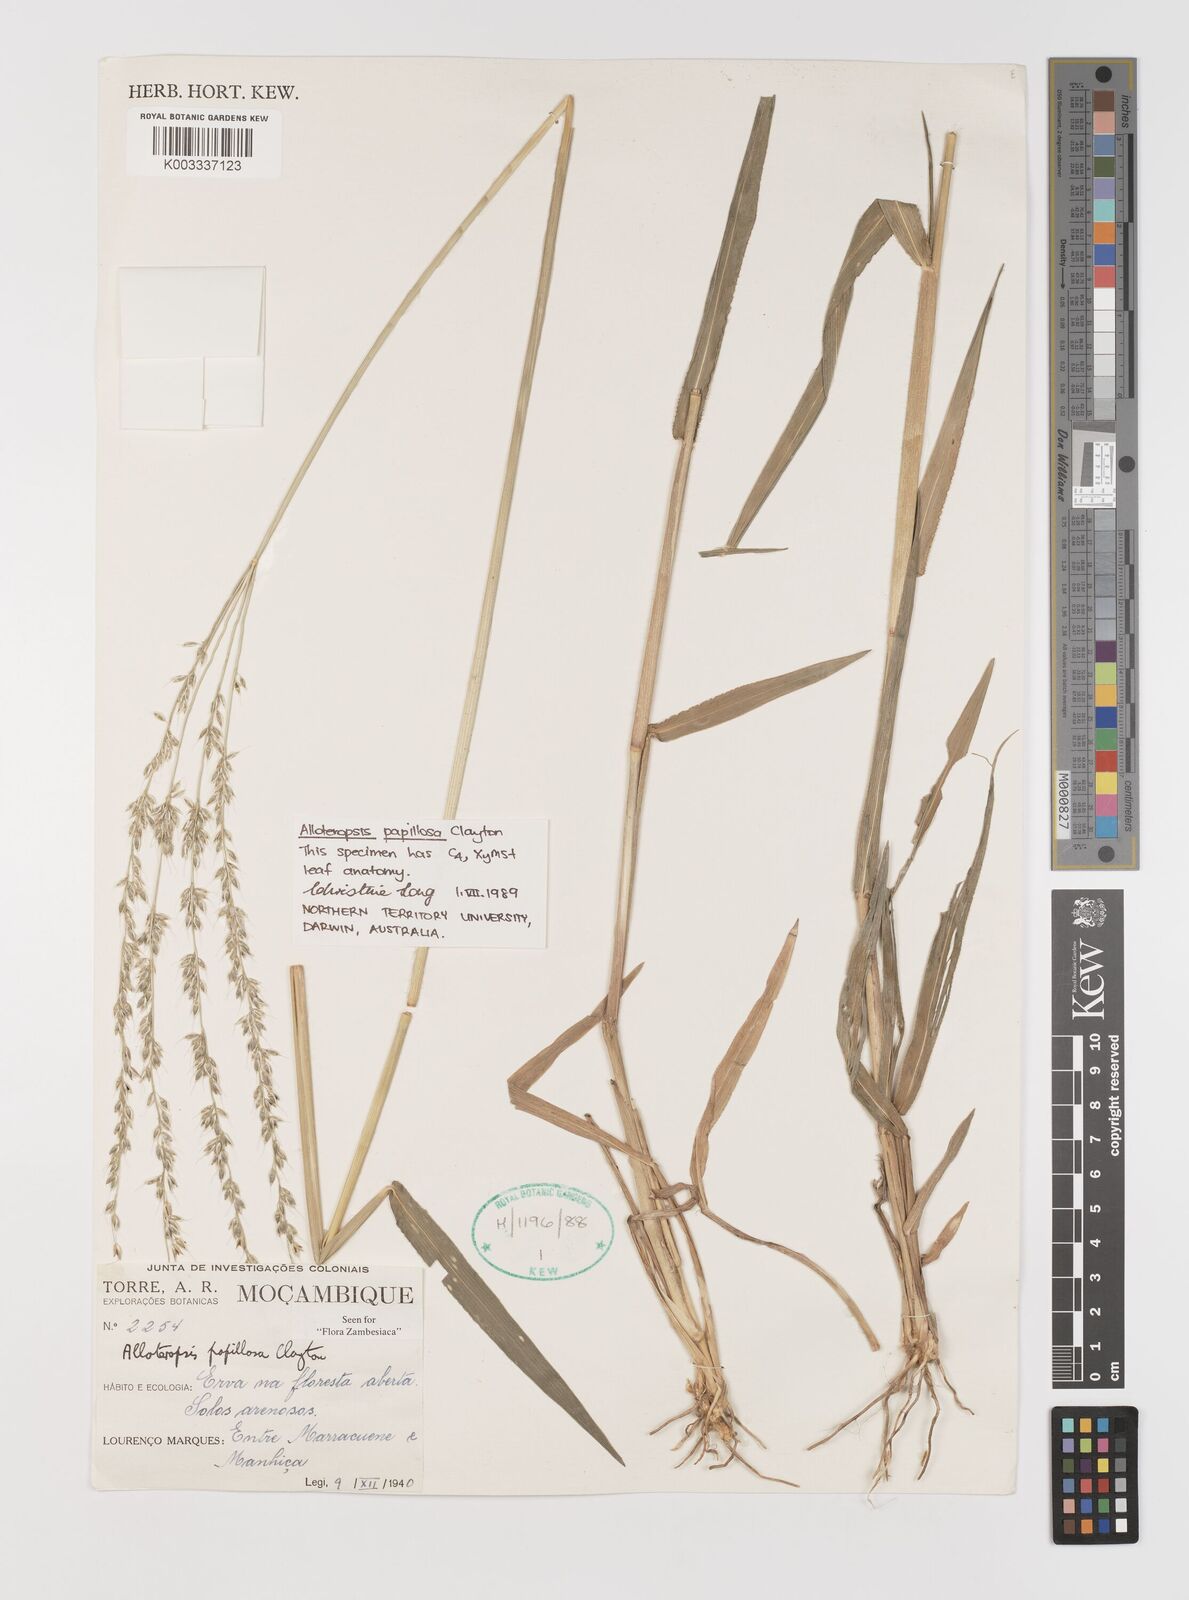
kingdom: Plantae
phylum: Tracheophyta
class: Liliopsida
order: Poales
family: Poaceae
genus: Alloteropsis
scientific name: Alloteropsis papillosa
